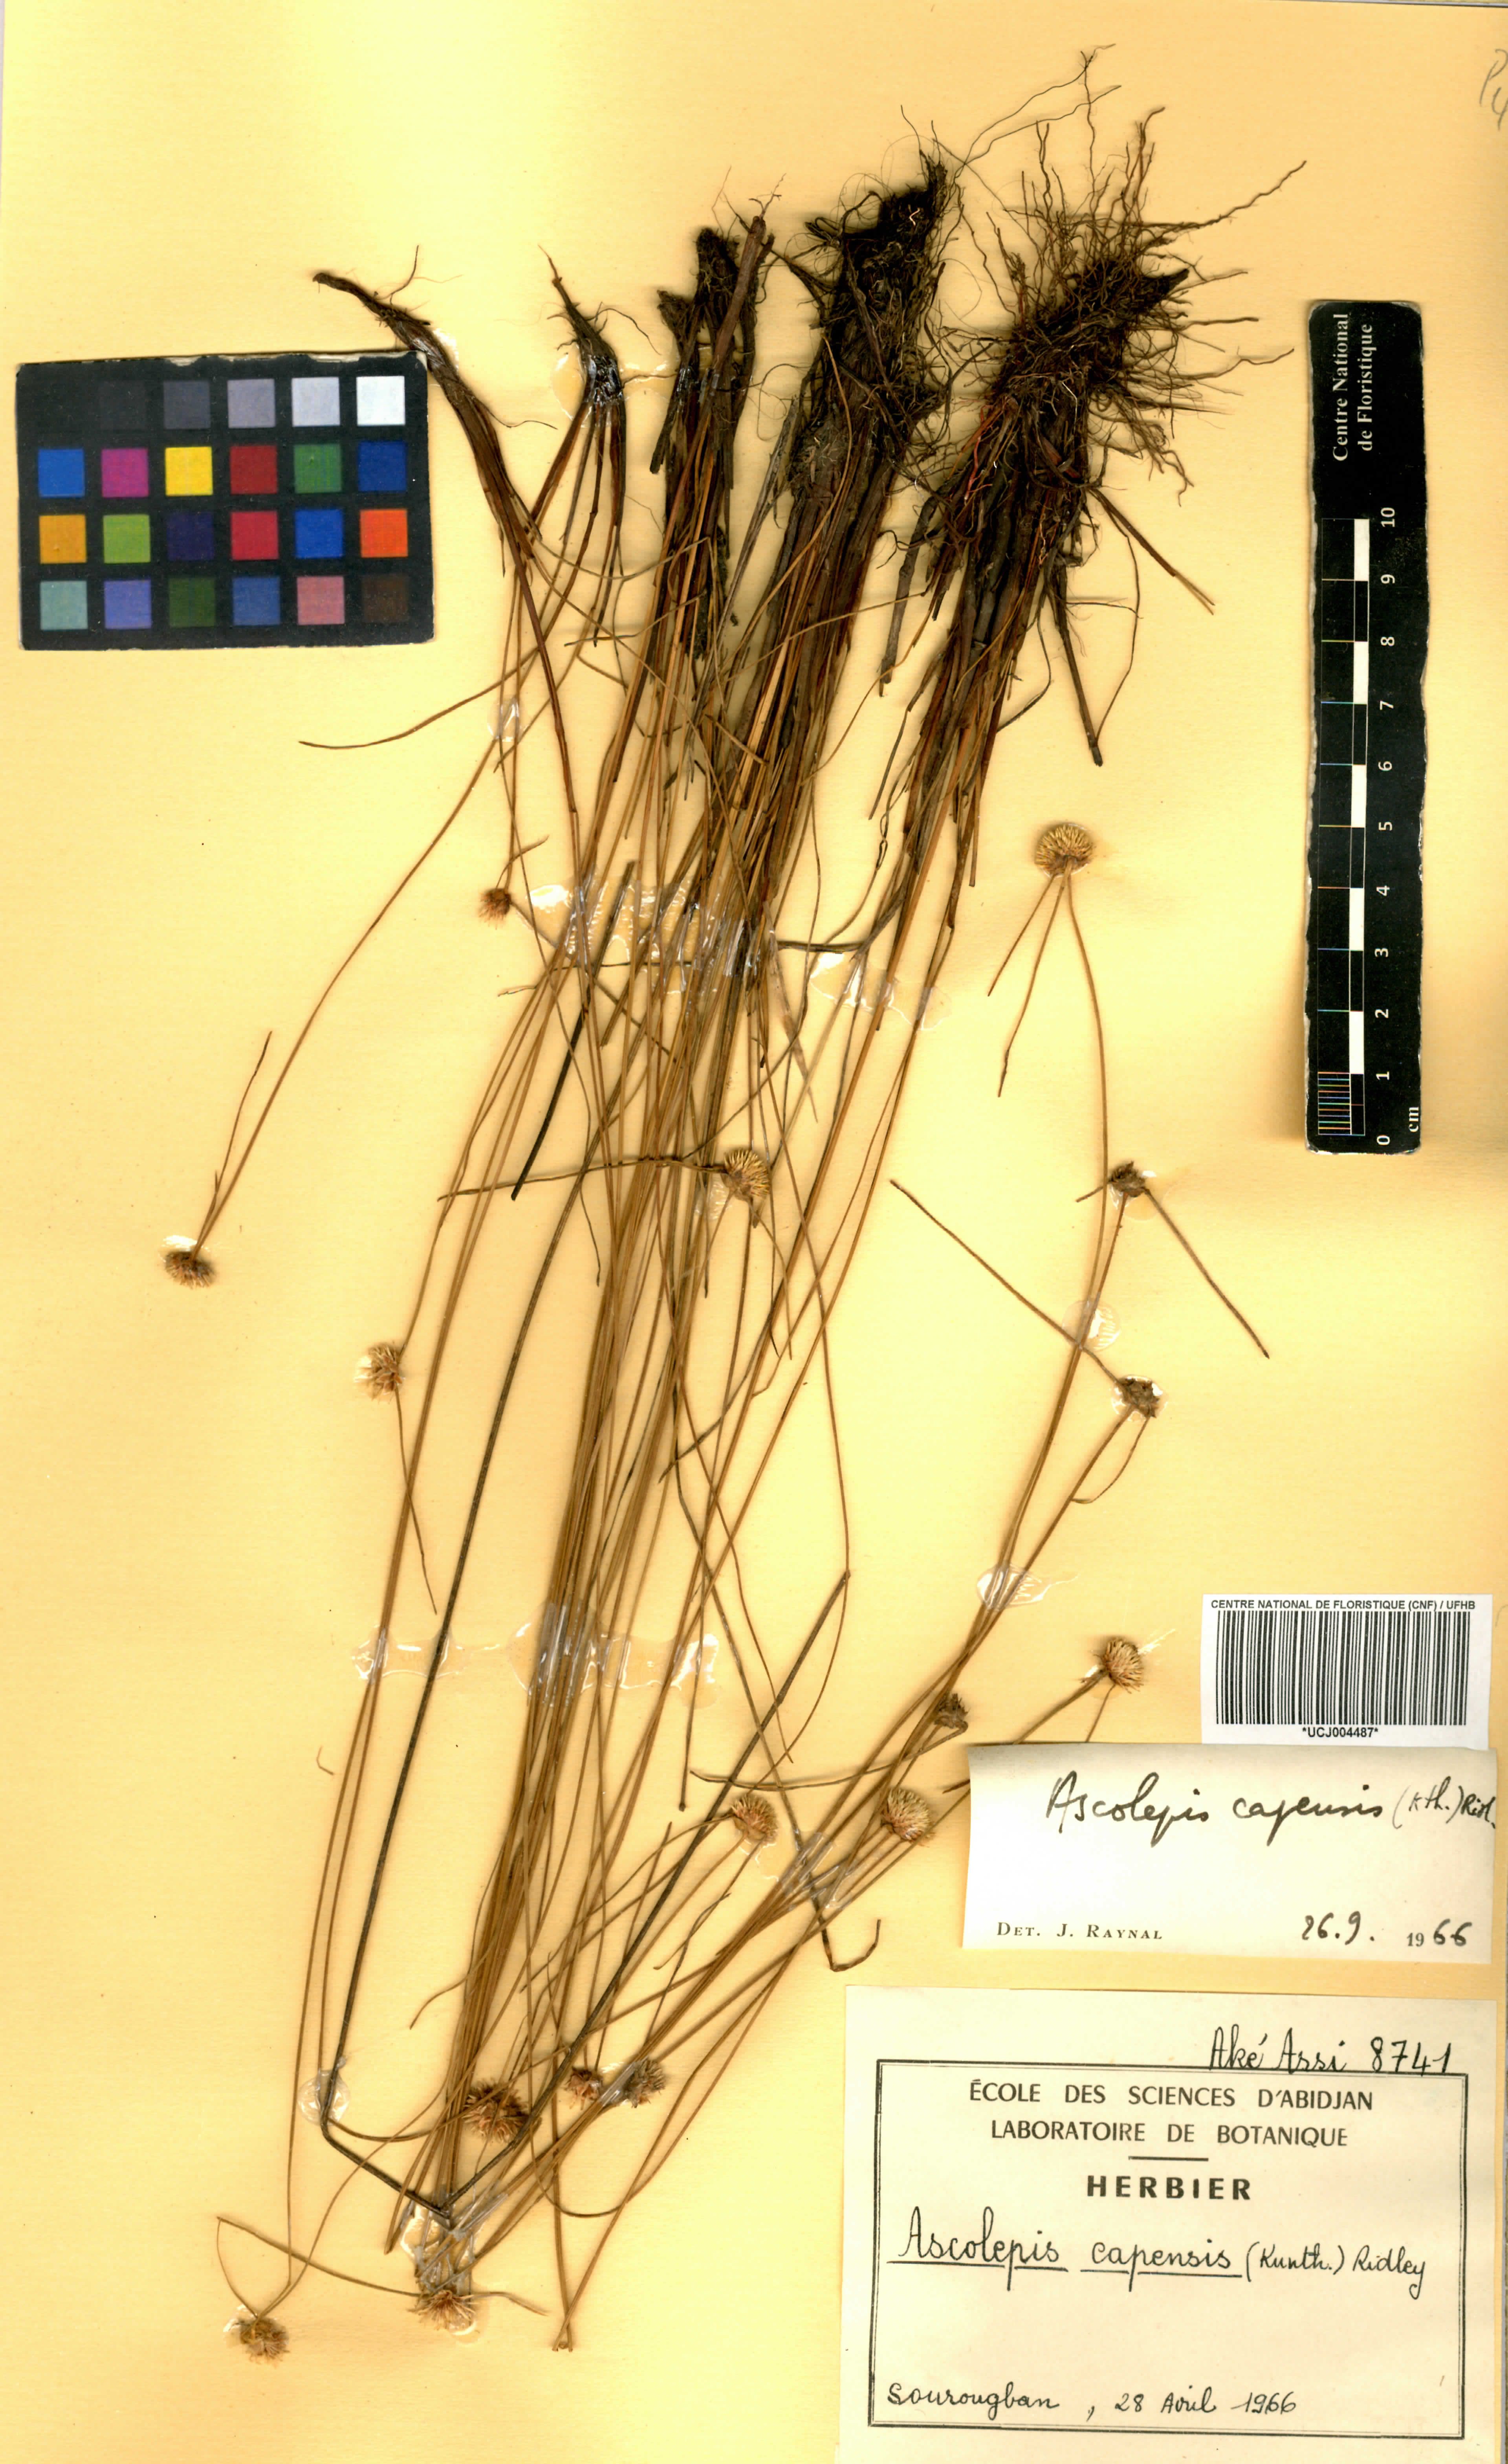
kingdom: Plantae
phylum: Tracheophyta
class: Liliopsida
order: Poales
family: Cyperaceae
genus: Cyperus
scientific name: Cyperus ascocapensis
